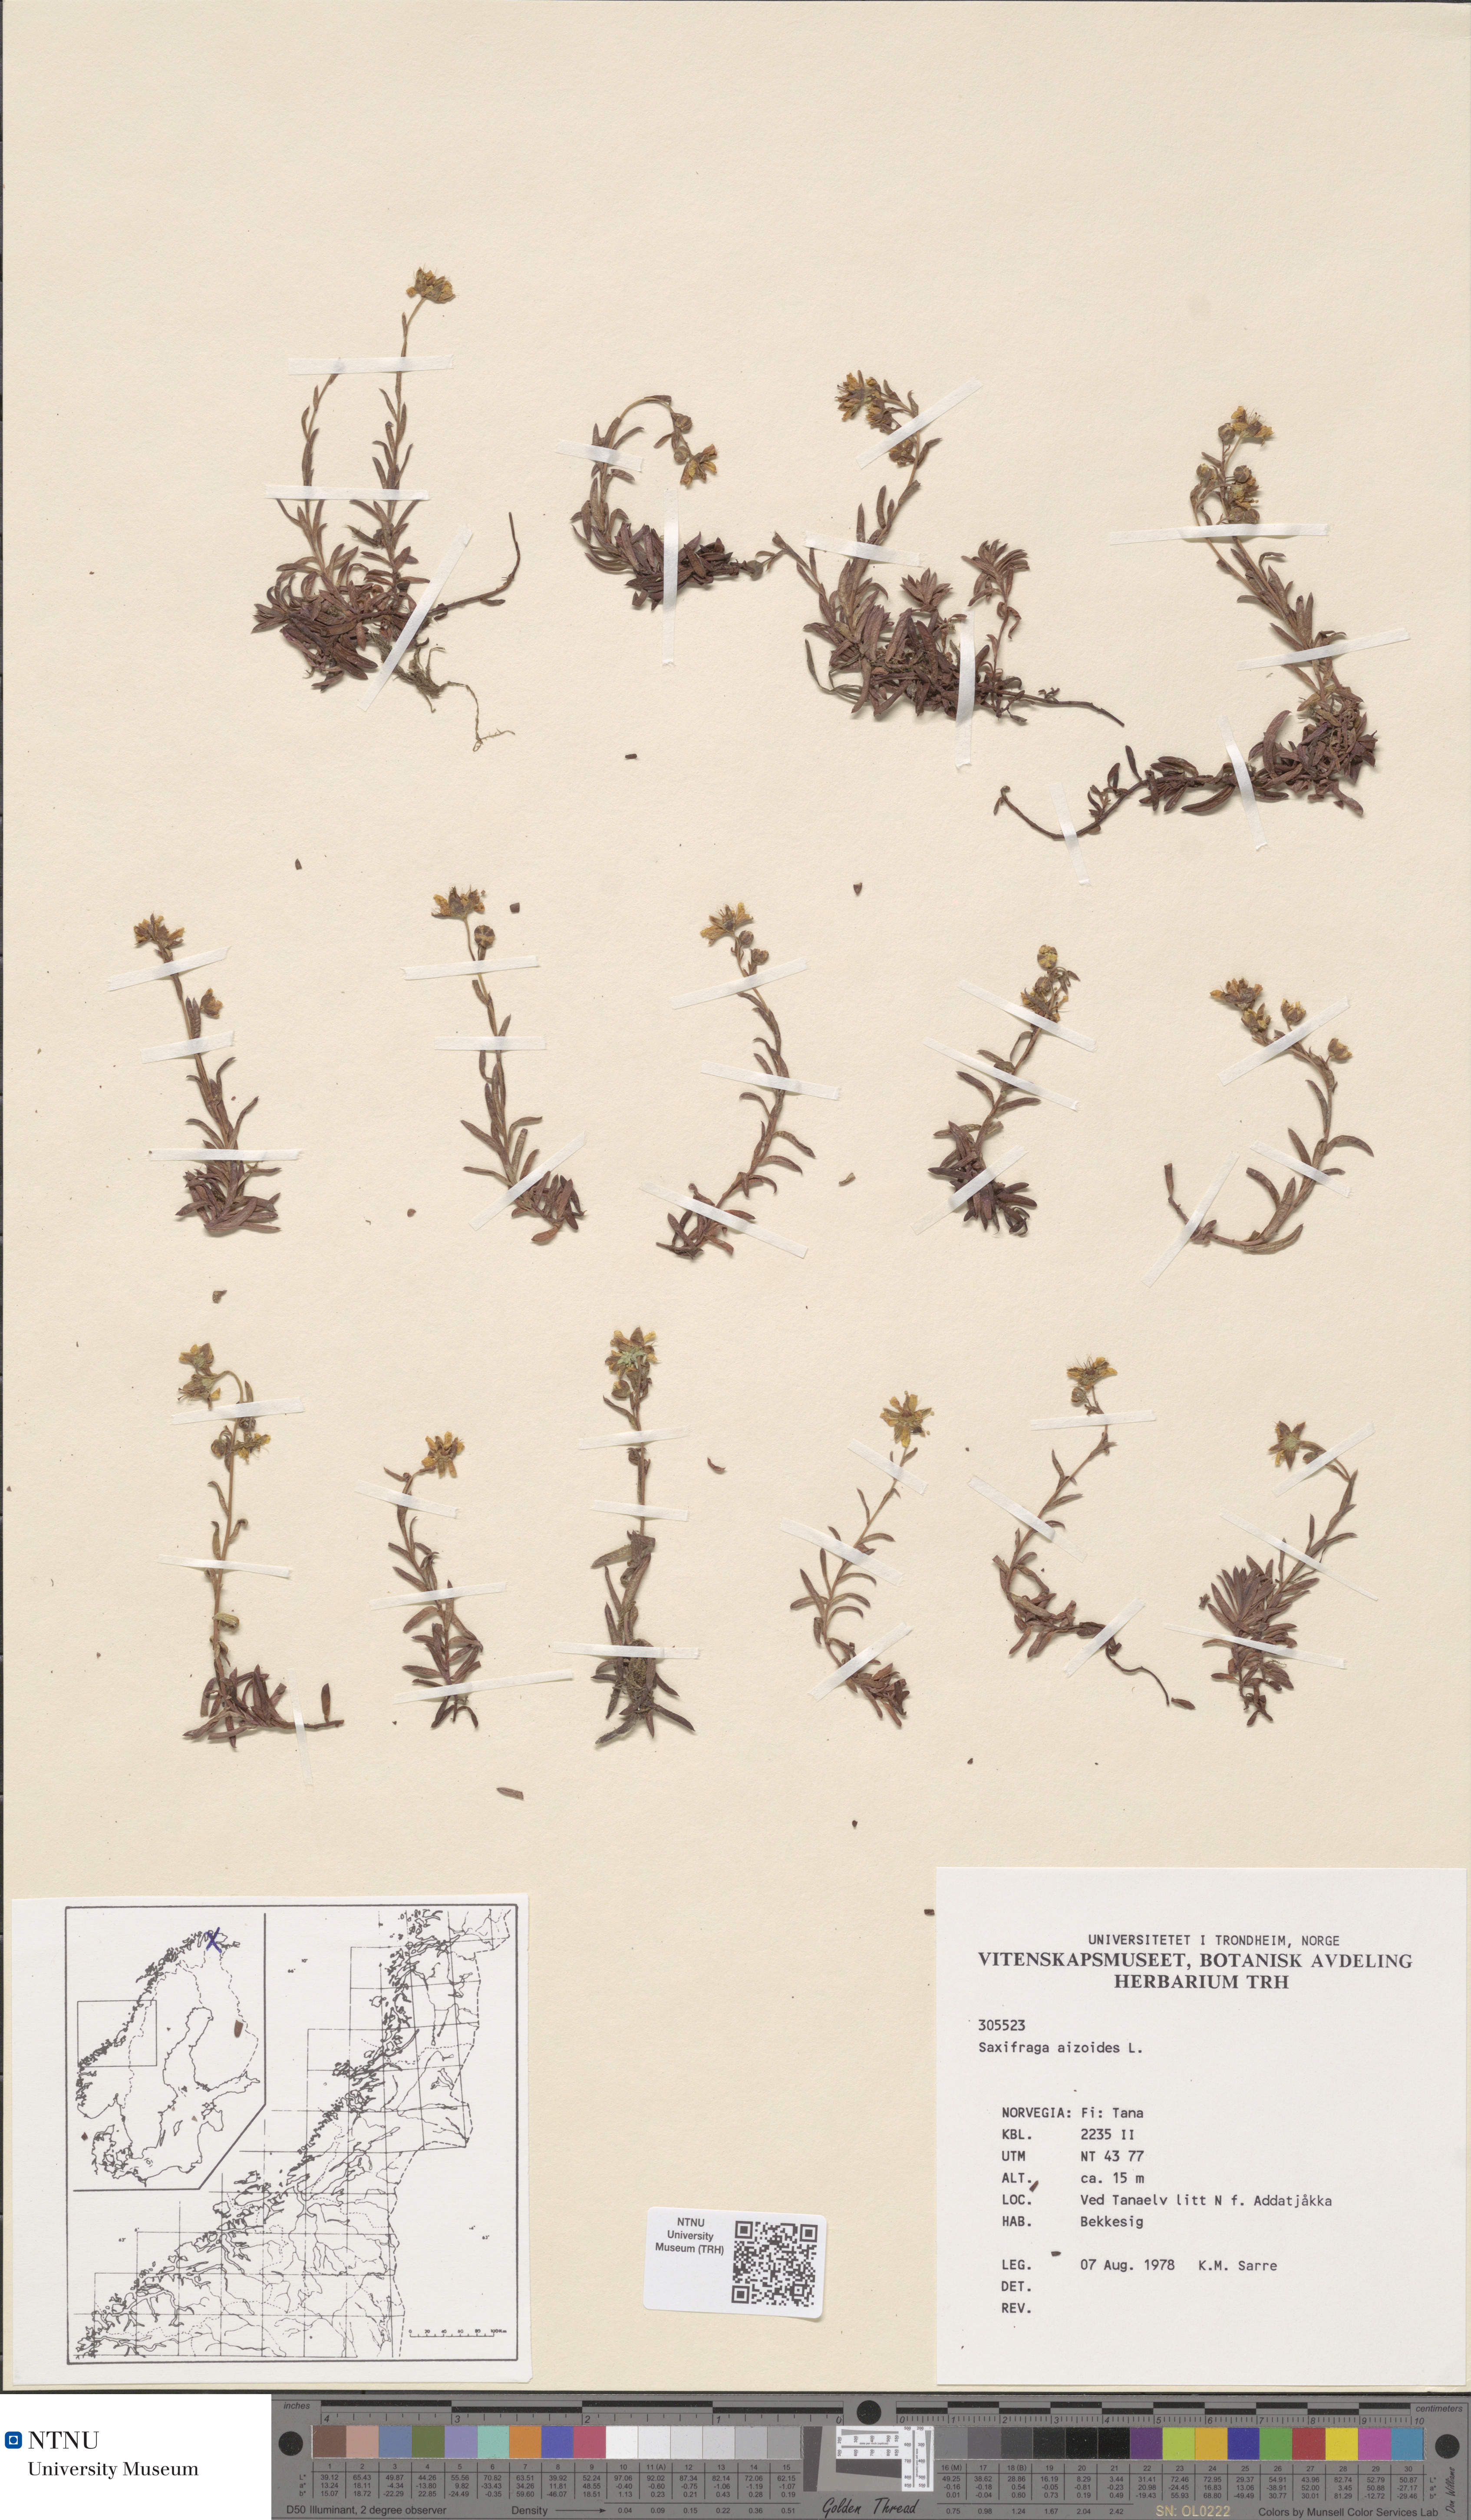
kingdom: Plantae
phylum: Tracheophyta
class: Magnoliopsida
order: Saxifragales
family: Saxifragaceae
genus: Saxifraga
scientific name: Saxifraga aizoides
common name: Yellow mountain saxifrage
